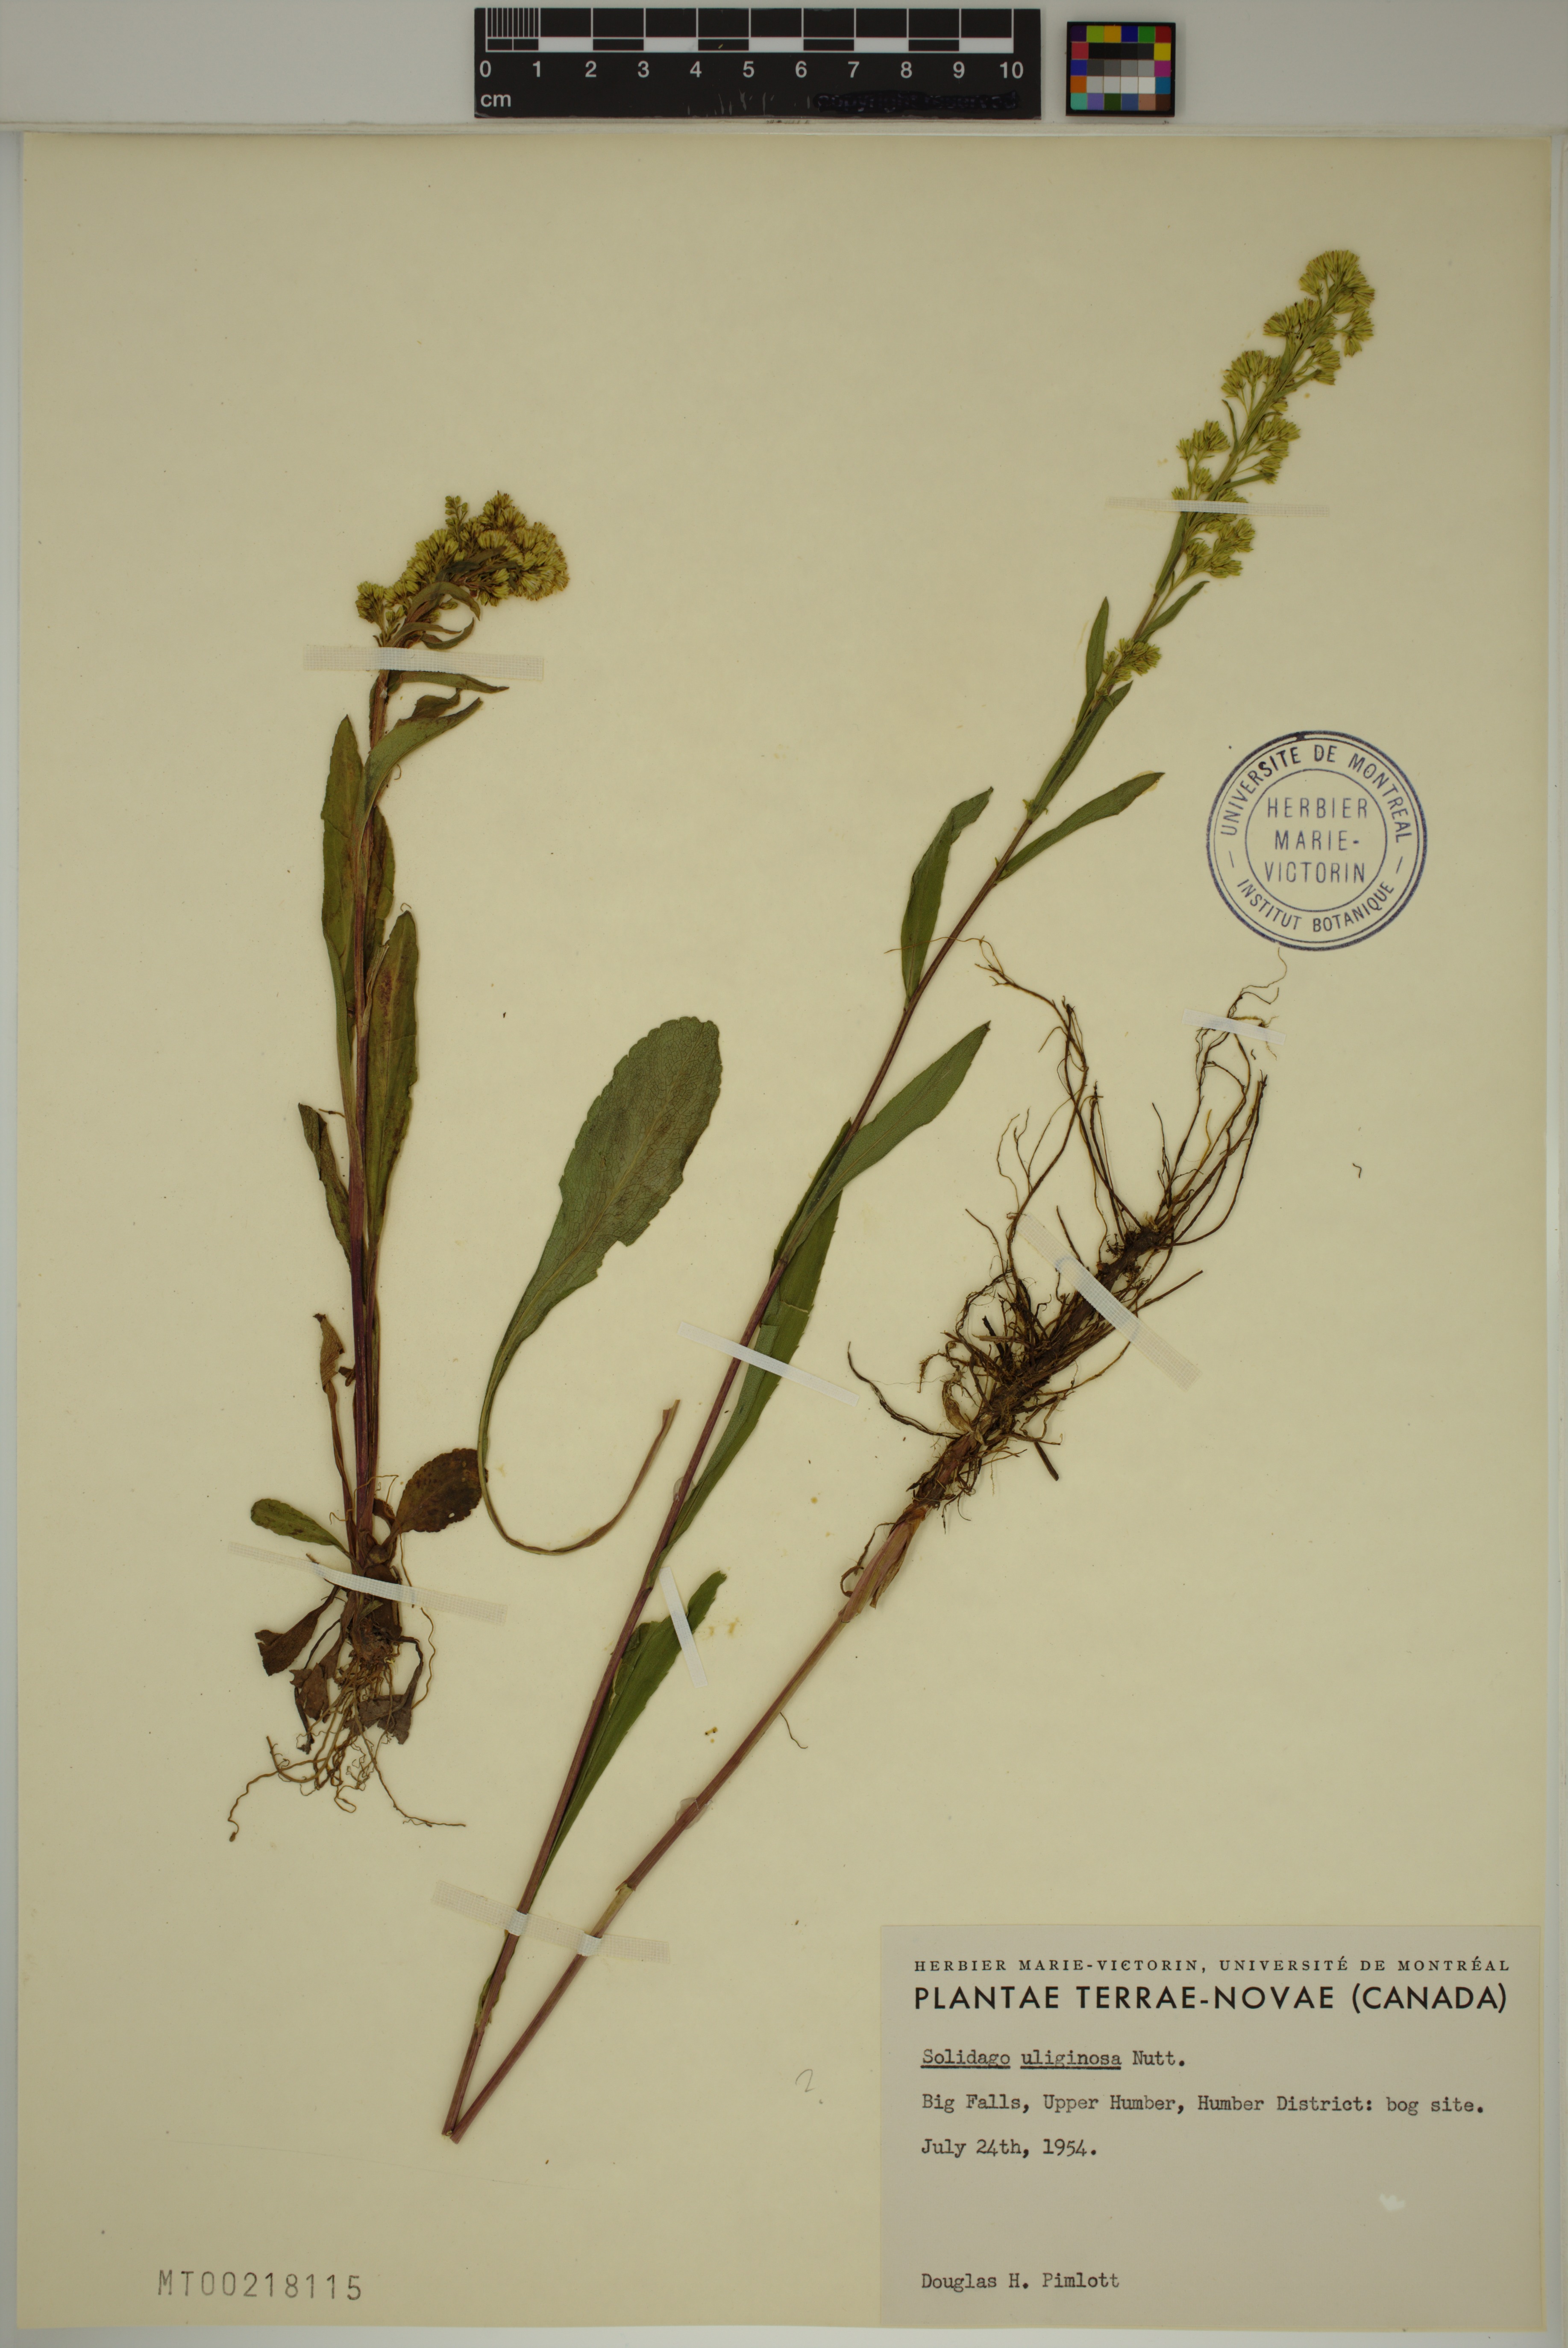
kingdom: Plantae
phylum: Tracheophyta
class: Magnoliopsida
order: Asterales
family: Asteraceae
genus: Solidago
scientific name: Solidago uliginosa
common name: Bog goldenrod
